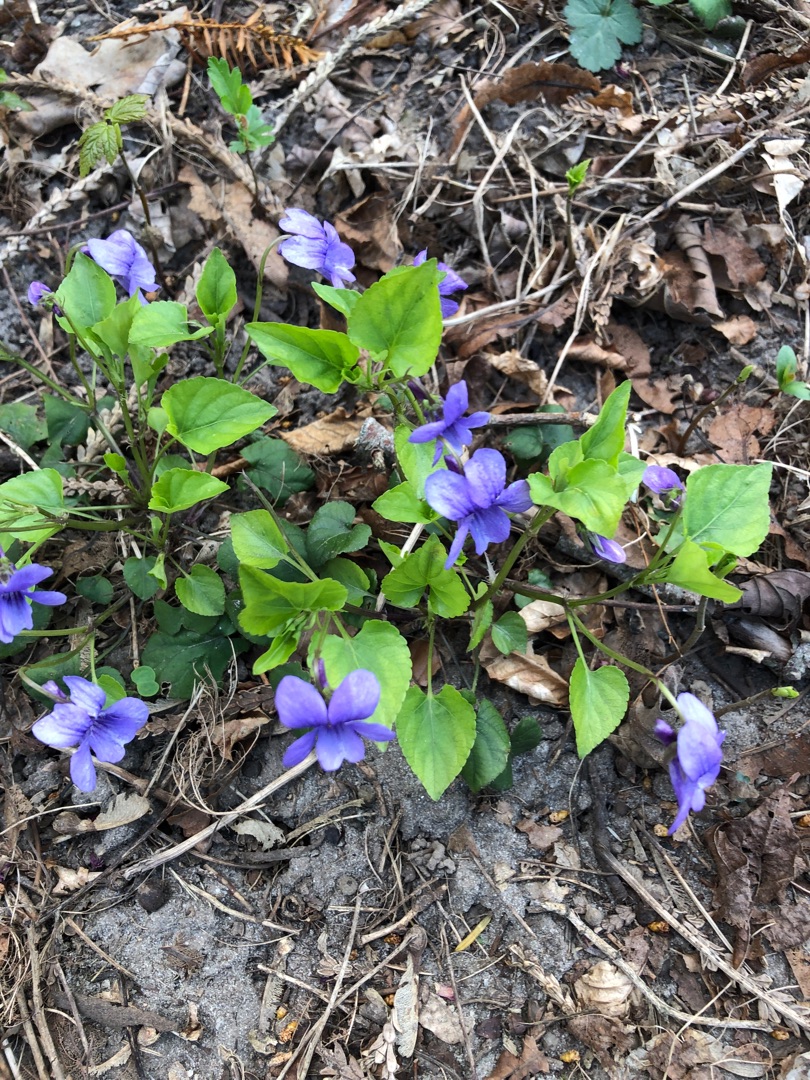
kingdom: Plantae
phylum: Tracheophyta
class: Magnoliopsida
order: Malpighiales
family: Violaceae
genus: Viola
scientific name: Viola reichenbachiana
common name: Skov-viol
